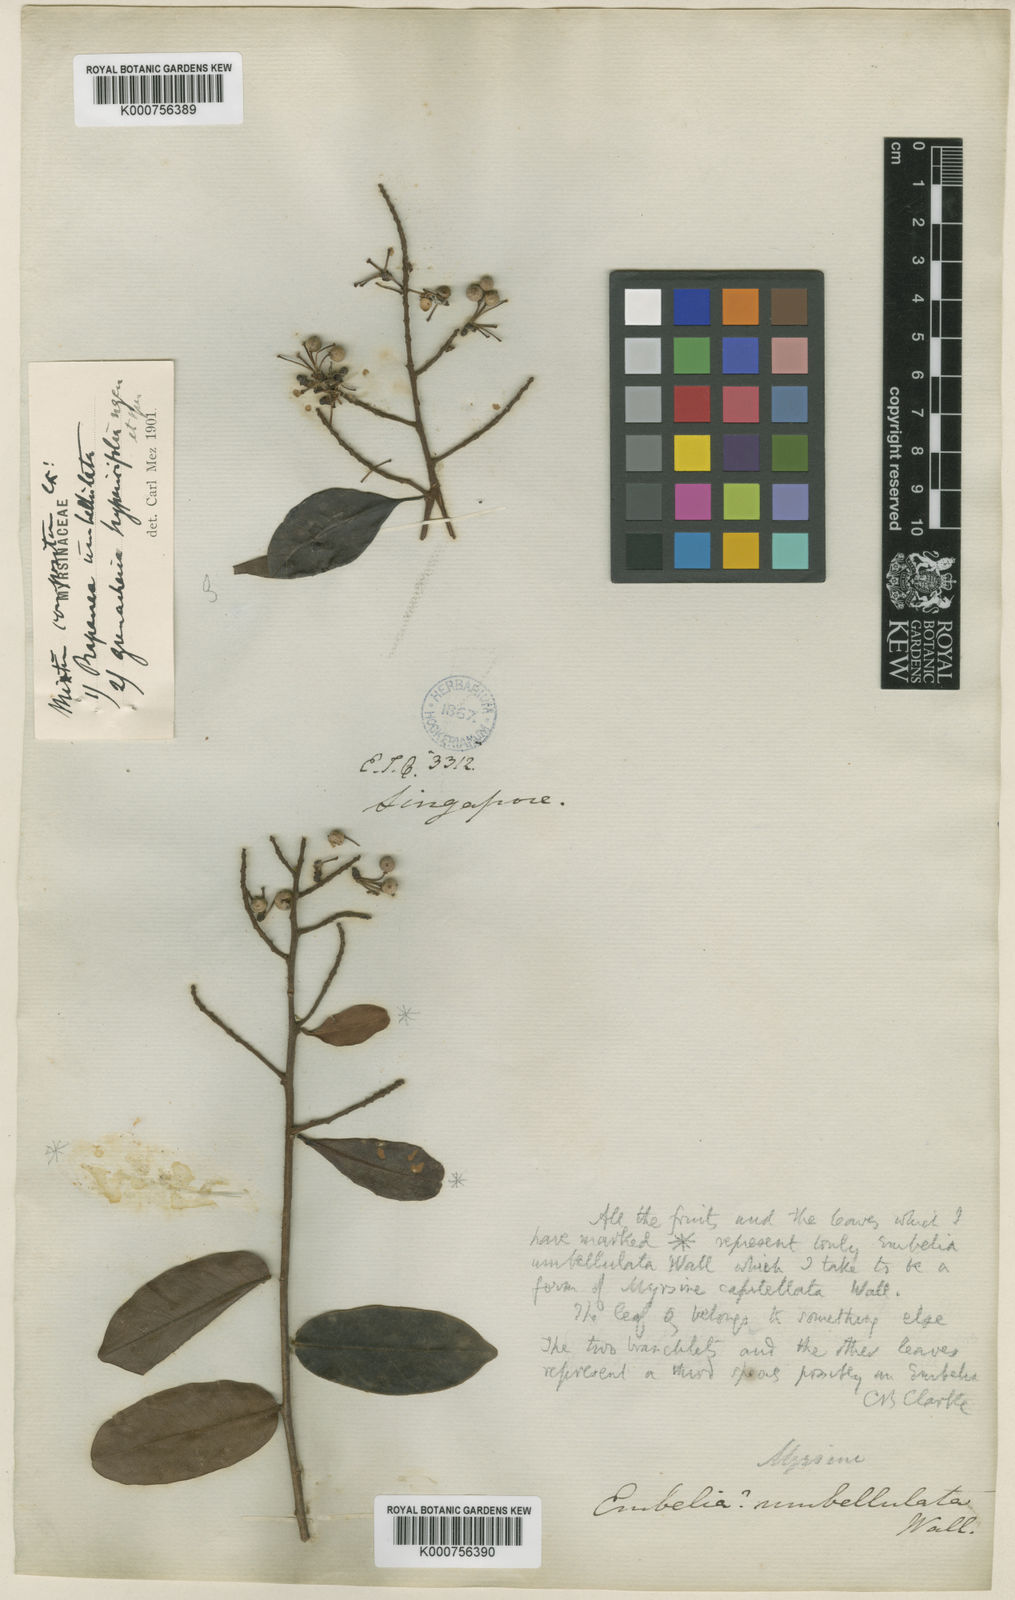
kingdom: Plantae
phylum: Tracheophyta
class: Magnoliopsida
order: Ericales
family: Primulaceae
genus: Myrsine
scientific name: Myrsine capitellata
